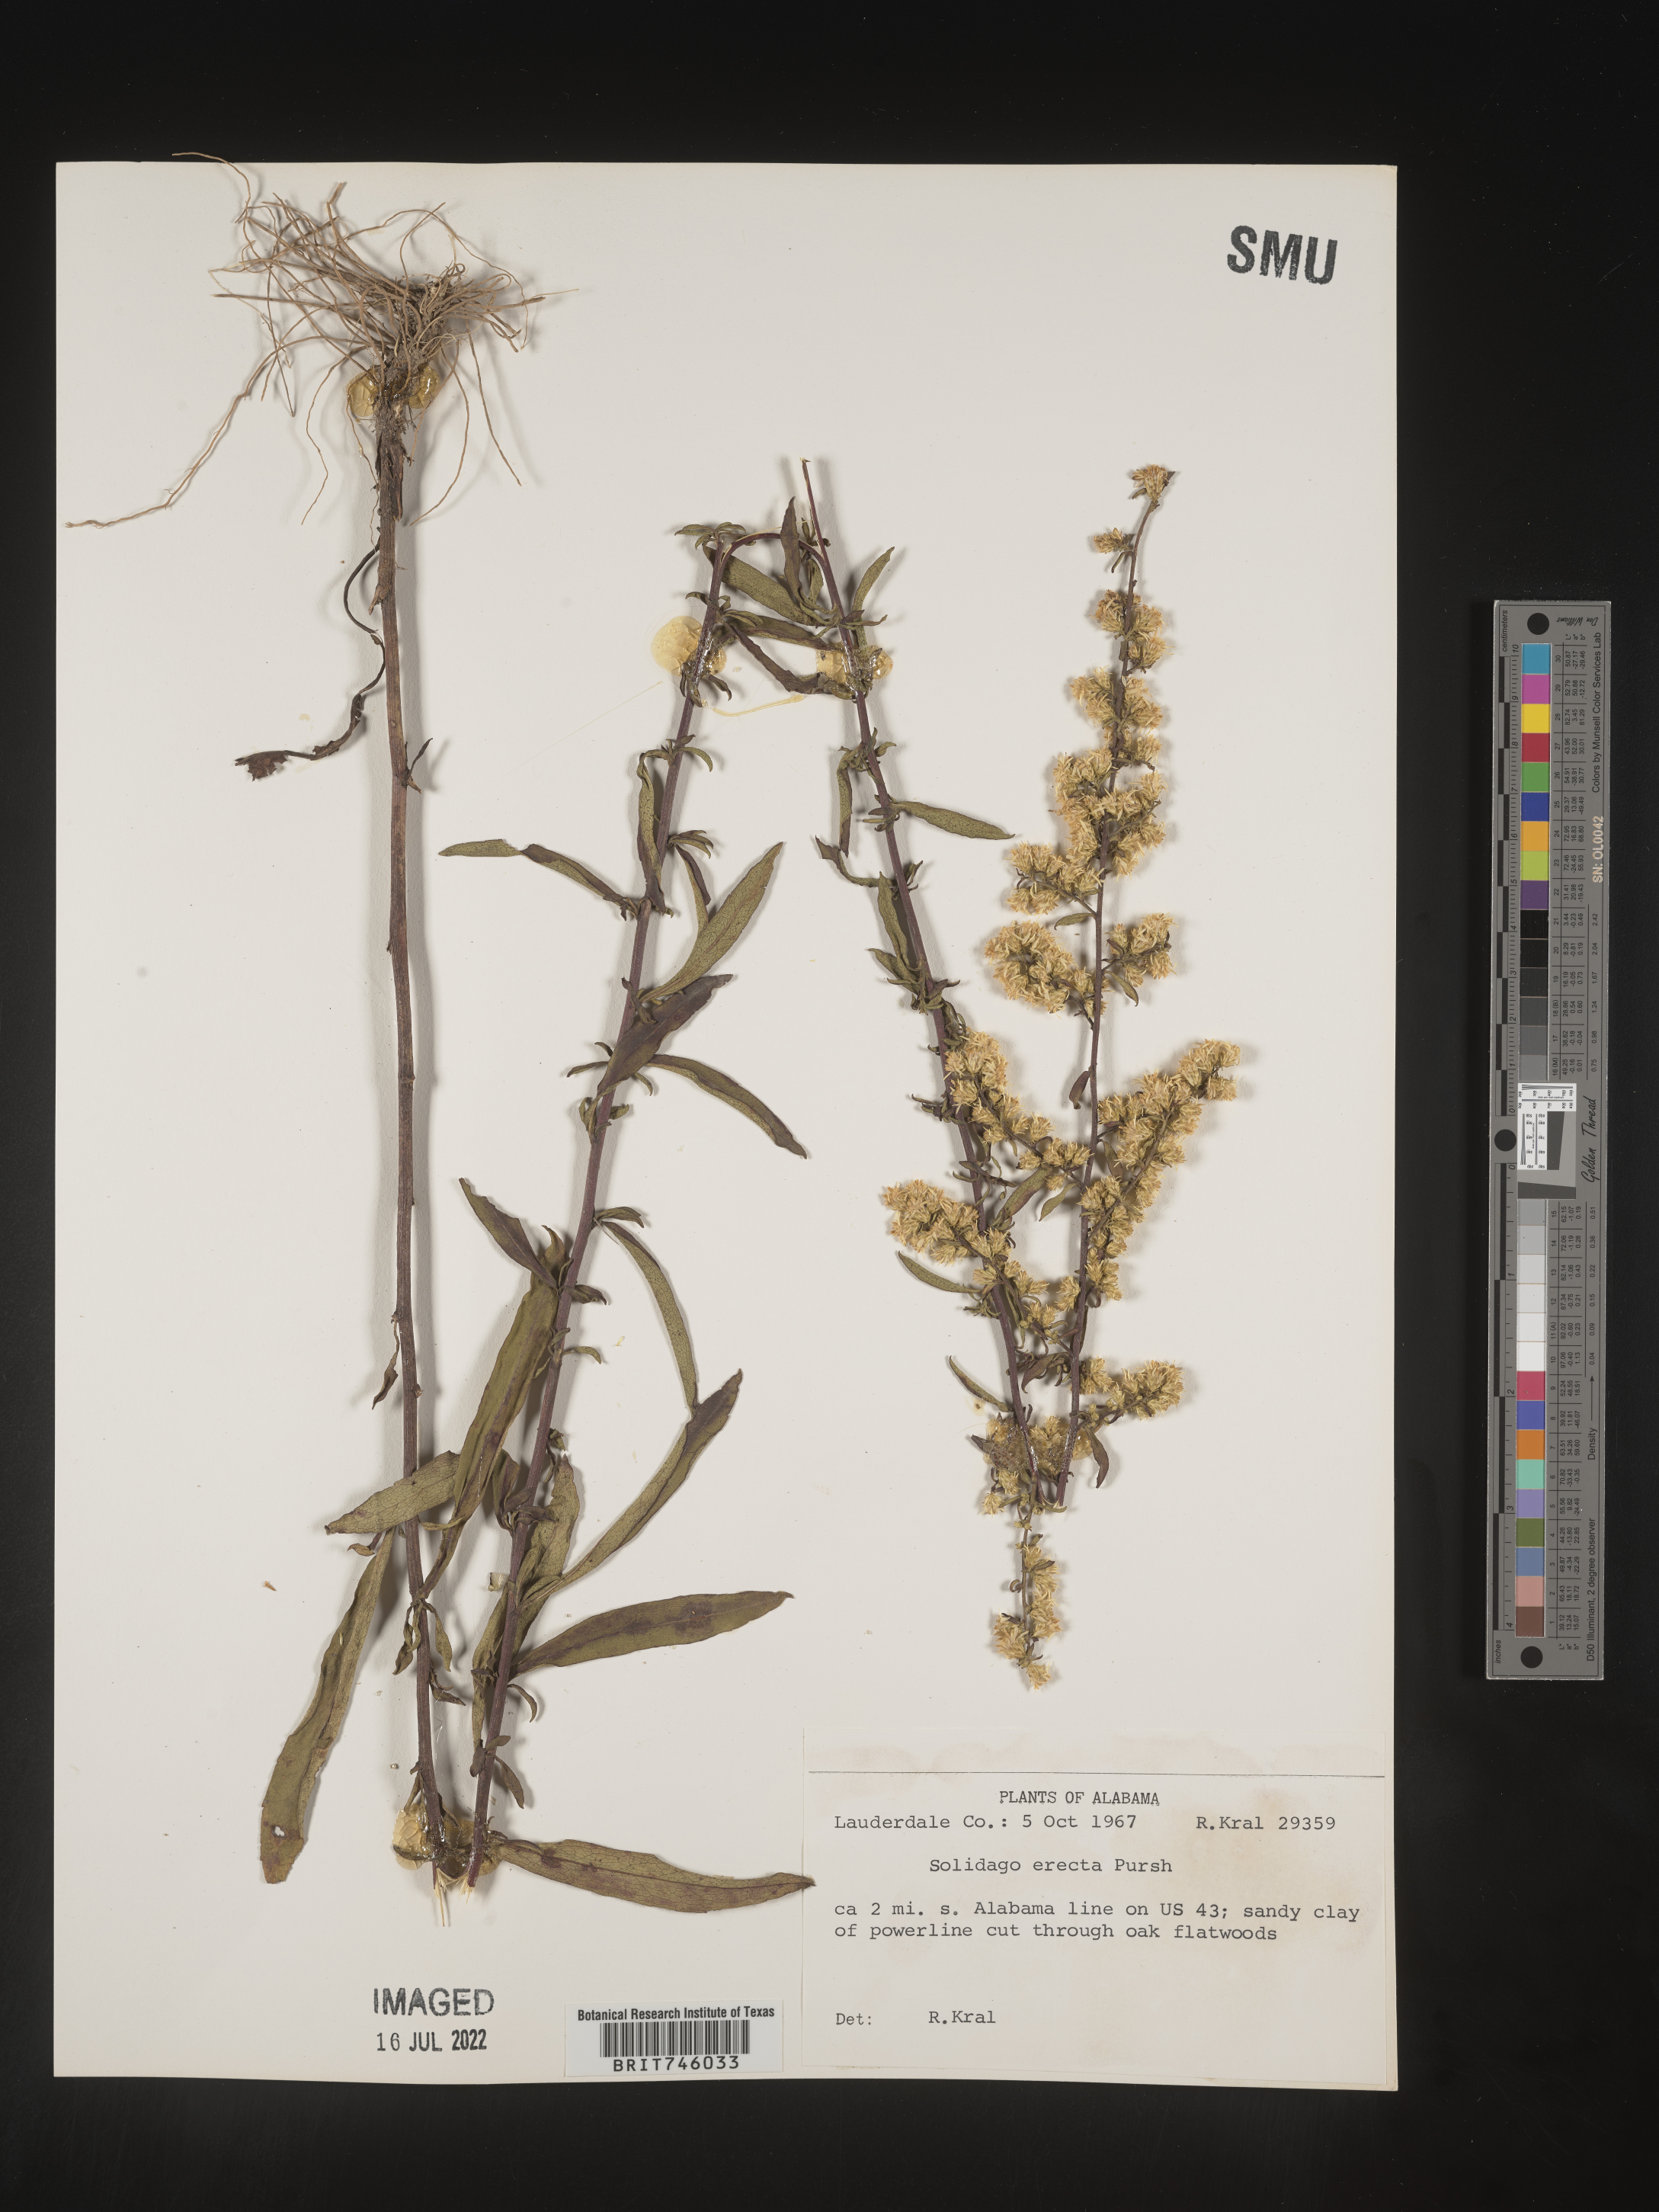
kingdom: Plantae
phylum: Tracheophyta
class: Magnoliopsida
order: Asterales
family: Asteraceae
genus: Solidago
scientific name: Solidago erecta
